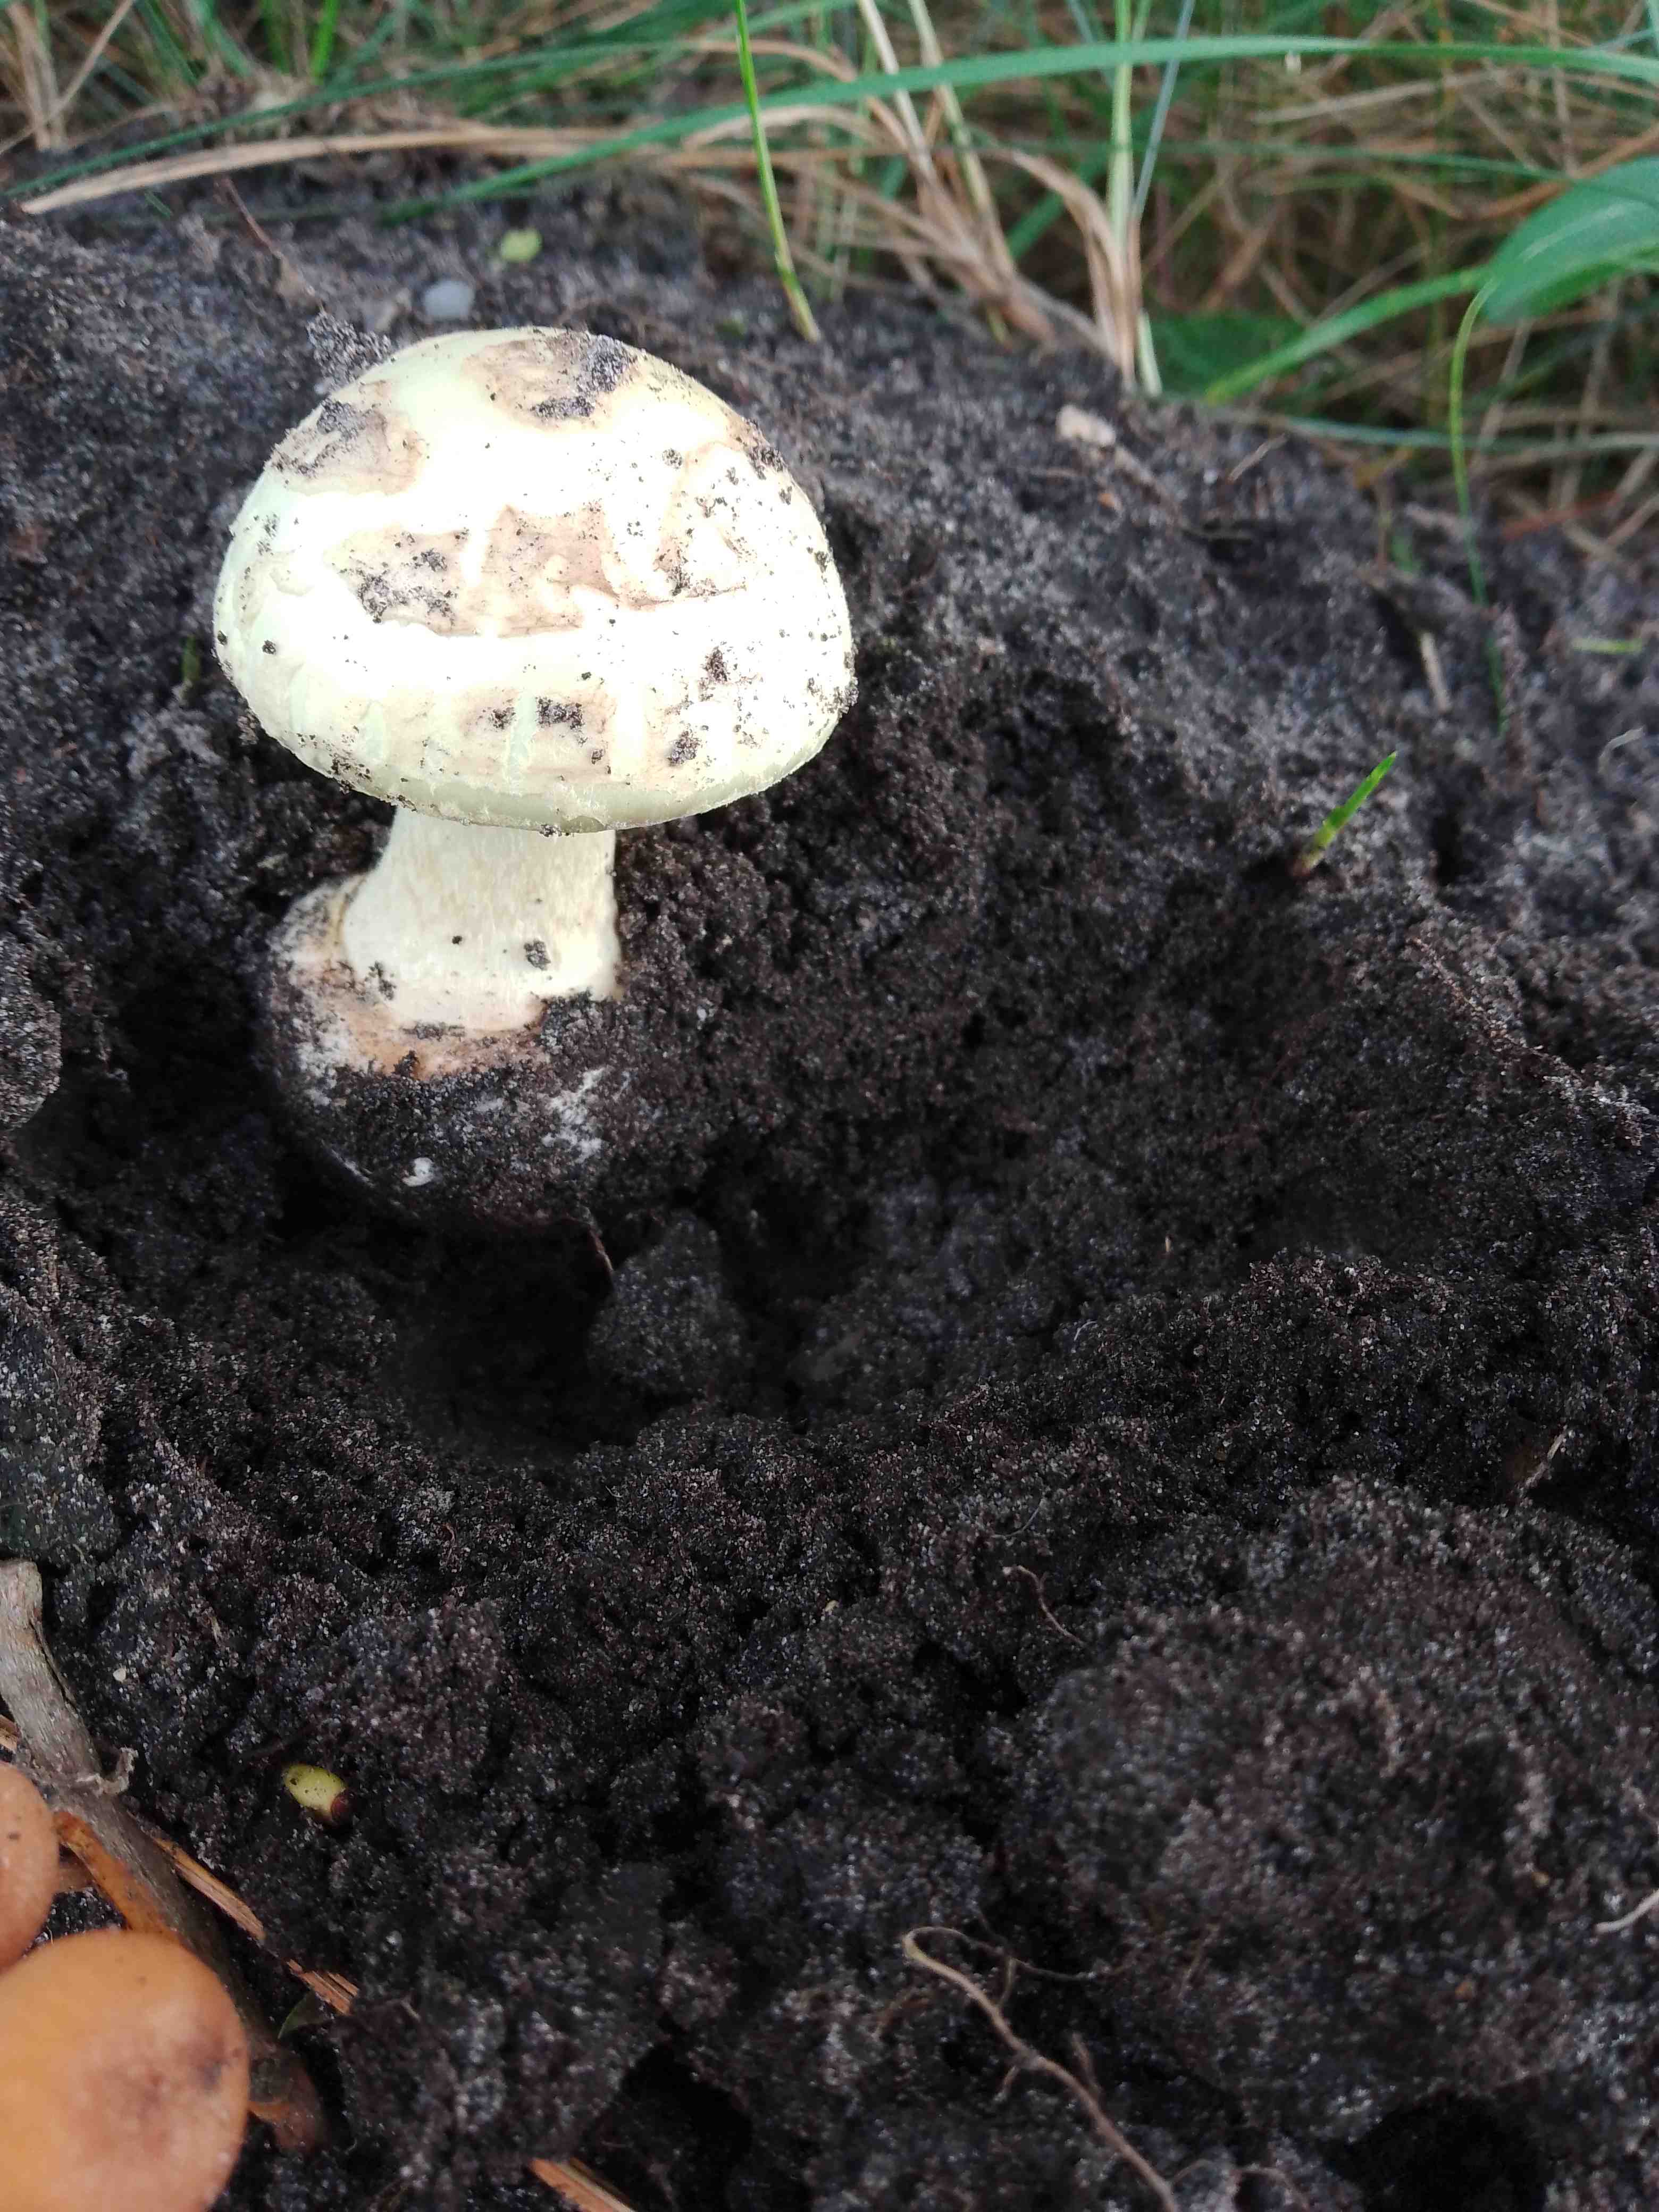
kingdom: Fungi
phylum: Basidiomycota
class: Agaricomycetes
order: Agaricales
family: Amanitaceae
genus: Amanita
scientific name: Amanita citrina
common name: kugleknoldet fluesvamp
